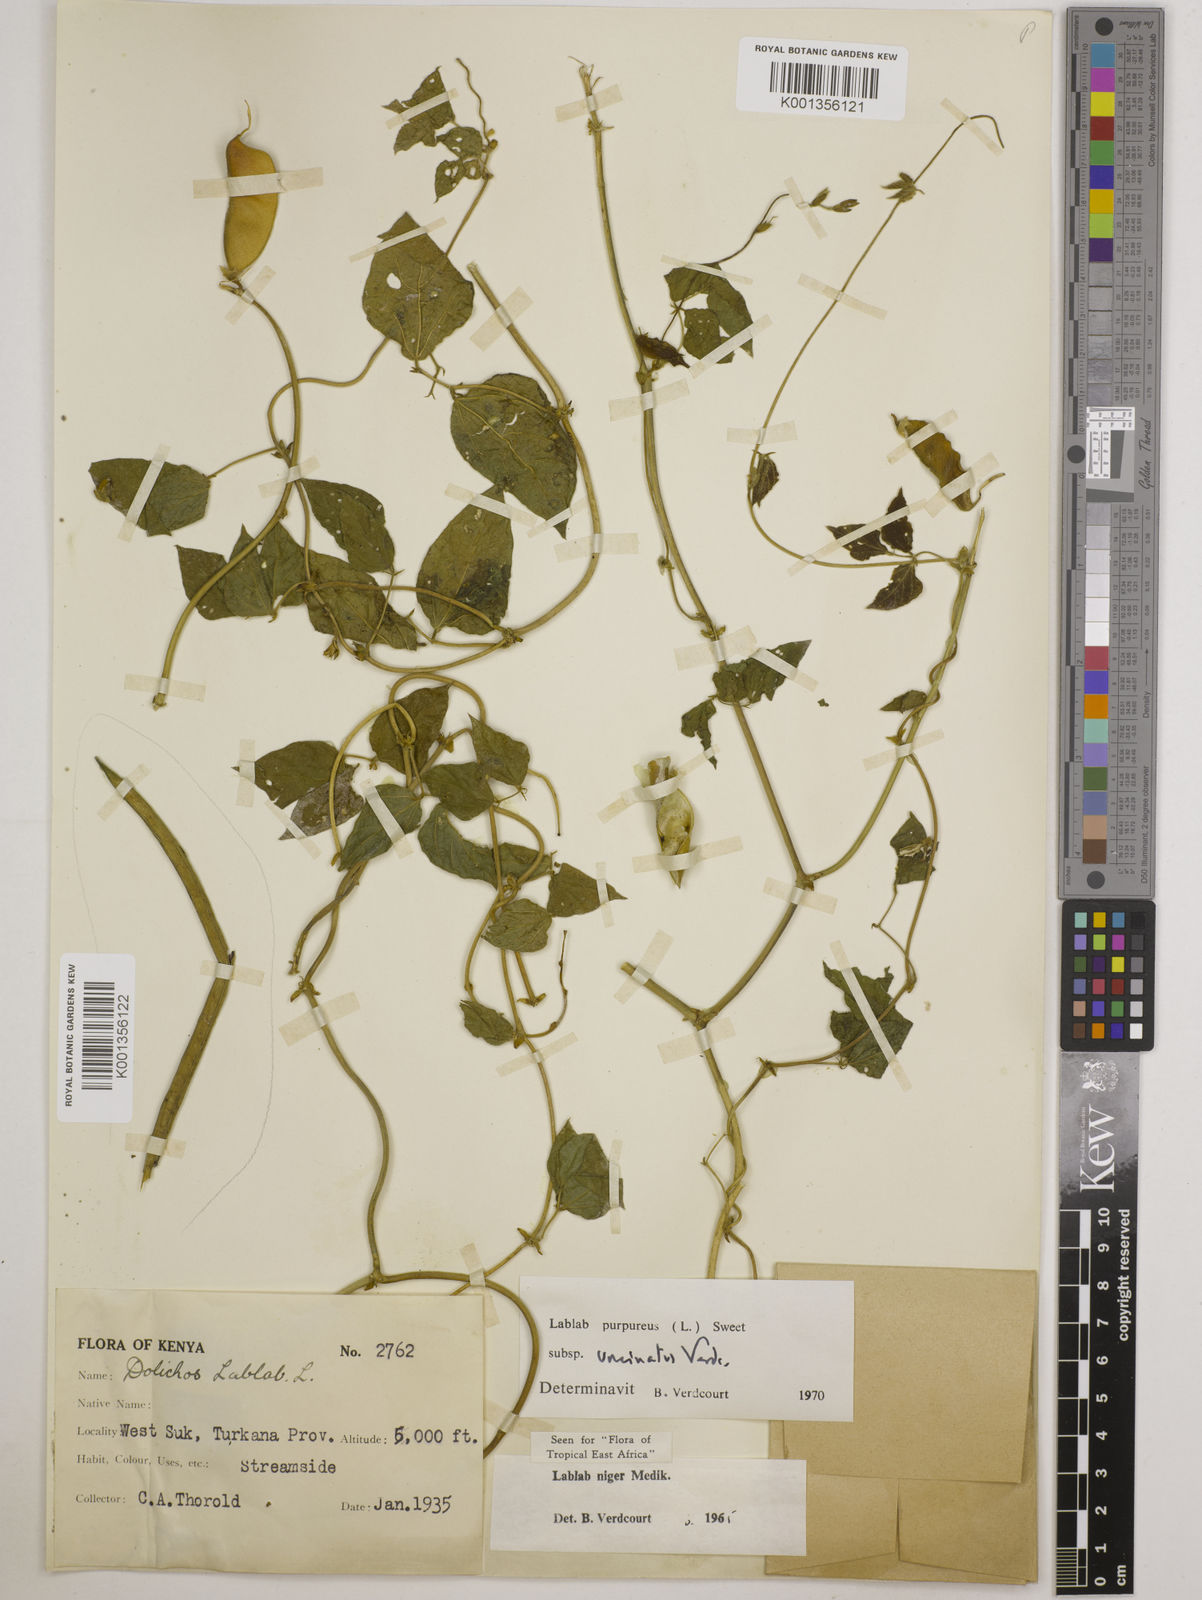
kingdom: Plantae
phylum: Tracheophyta
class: Magnoliopsida
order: Fabales
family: Fabaceae
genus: Lablab
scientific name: Lablab purpureus
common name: Lablab-bean
